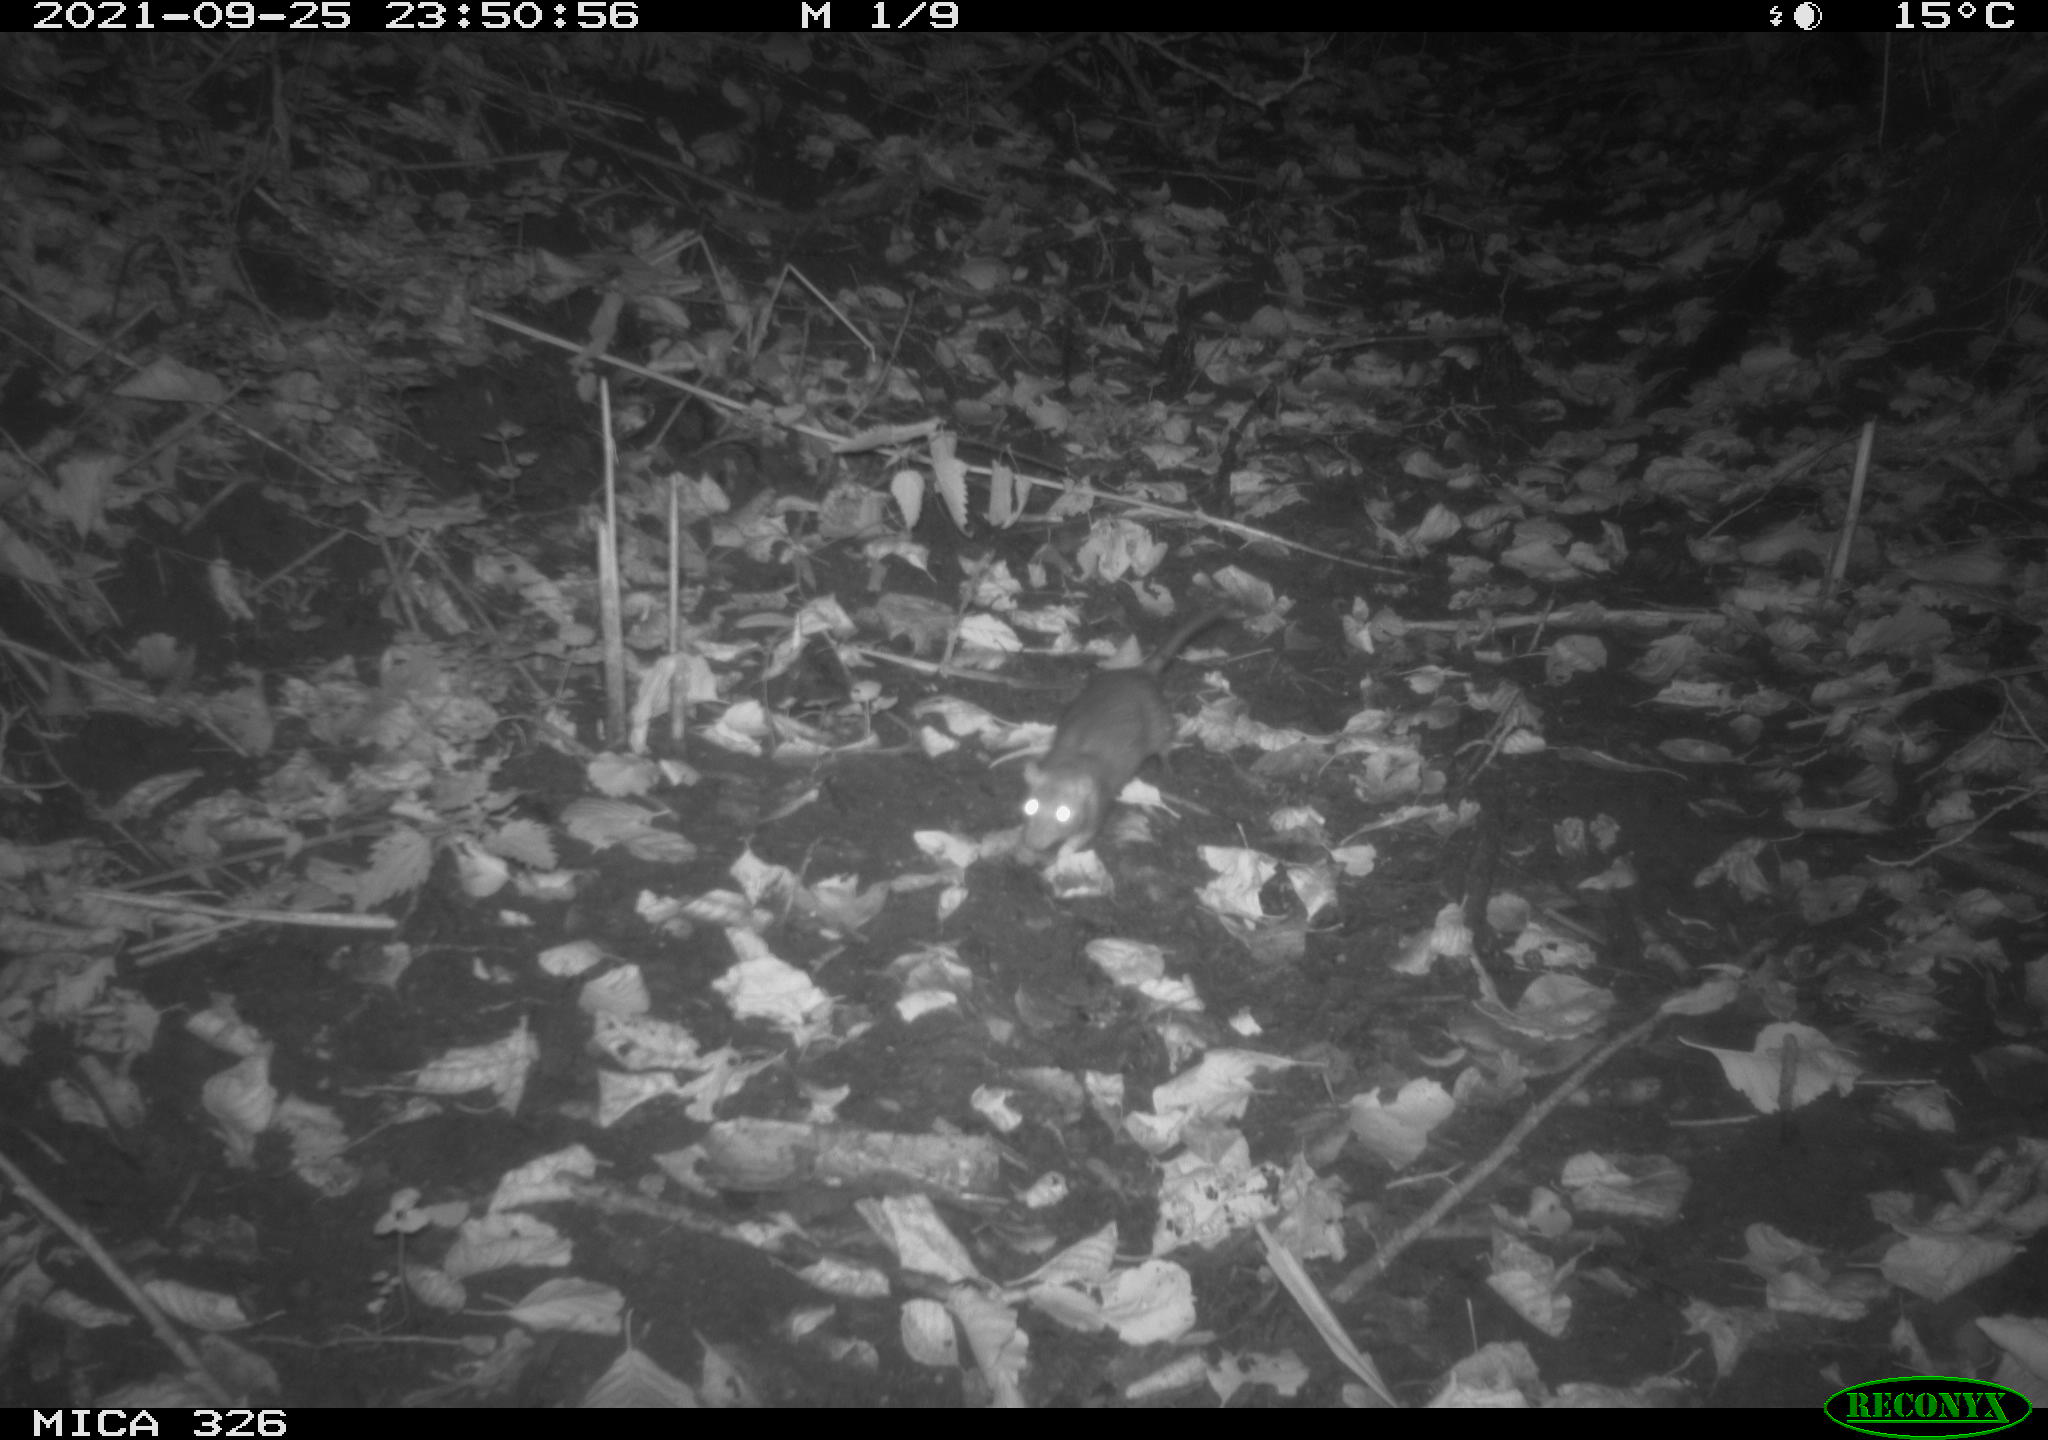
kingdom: Animalia
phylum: Chordata
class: Mammalia
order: Rodentia
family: Muridae
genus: Rattus
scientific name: Rattus norvegicus
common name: Brown rat
